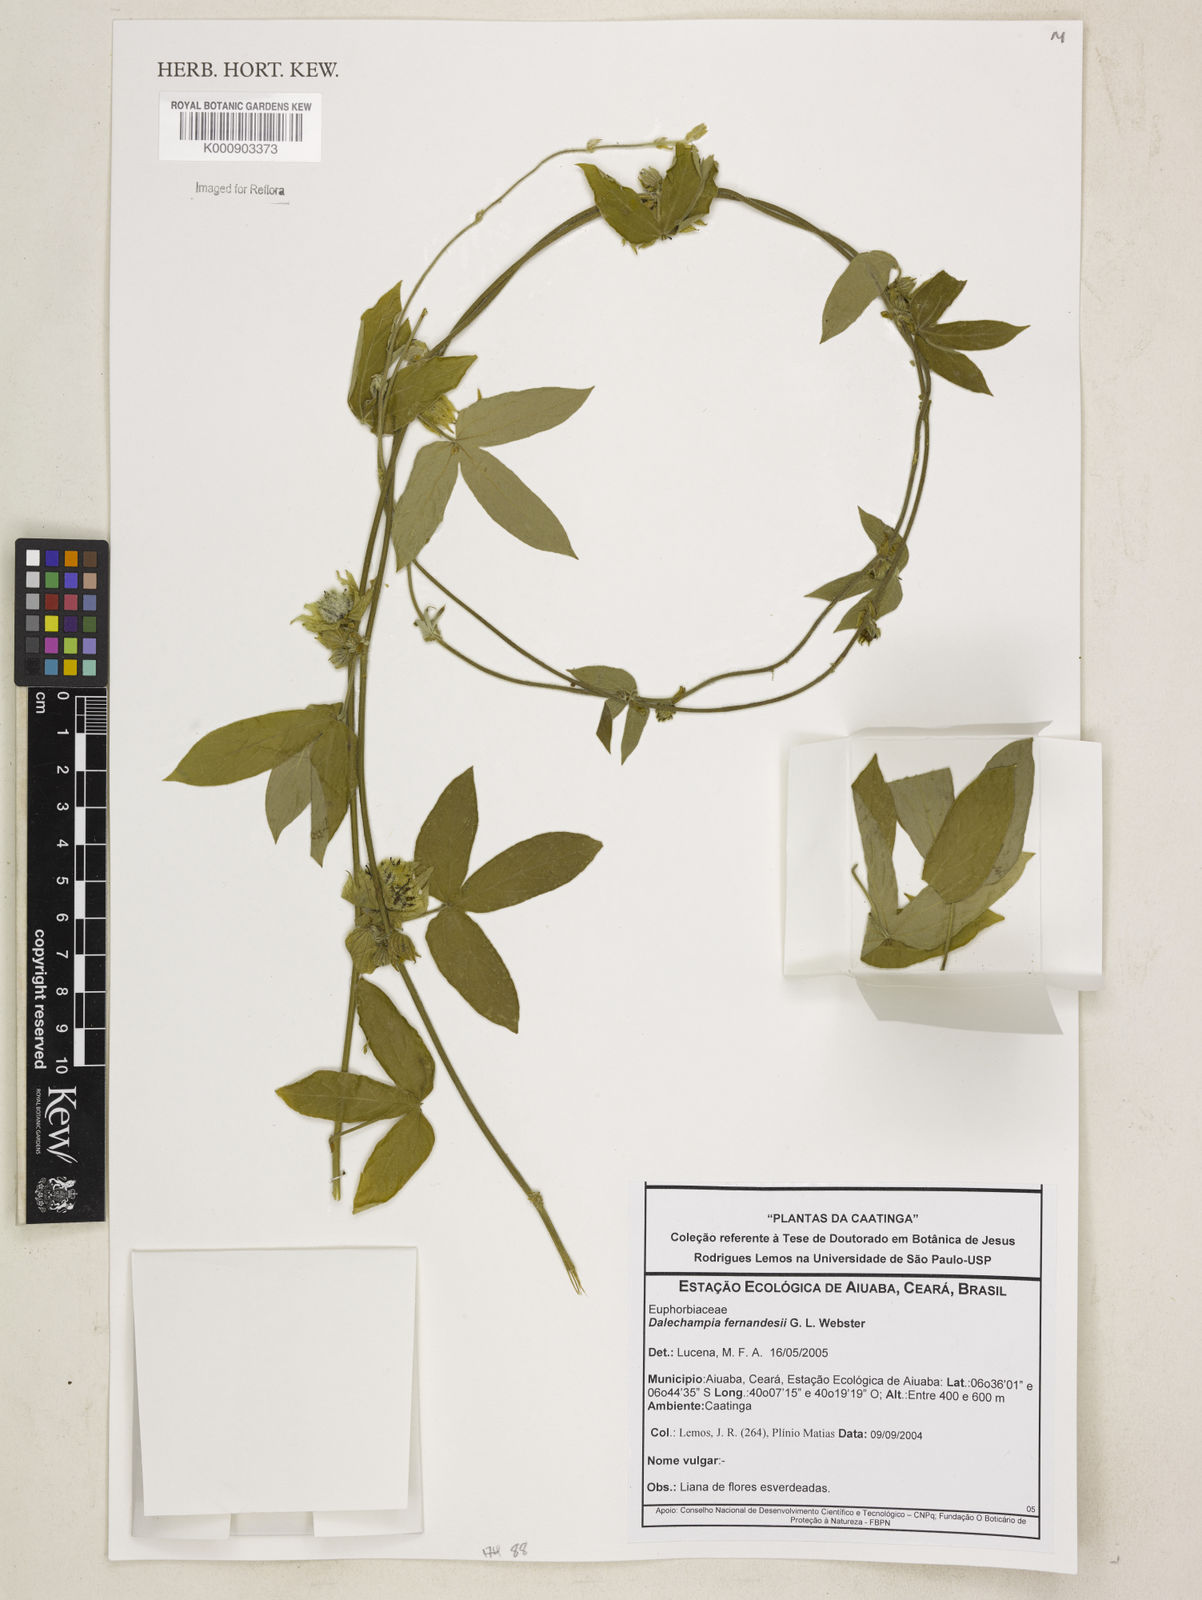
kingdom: Plantae
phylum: Tracheophyta
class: Magnoliopsida
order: Malpighiales
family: Euphorbiaceae
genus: Dalechampia
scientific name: Dalechampia fernandesii
